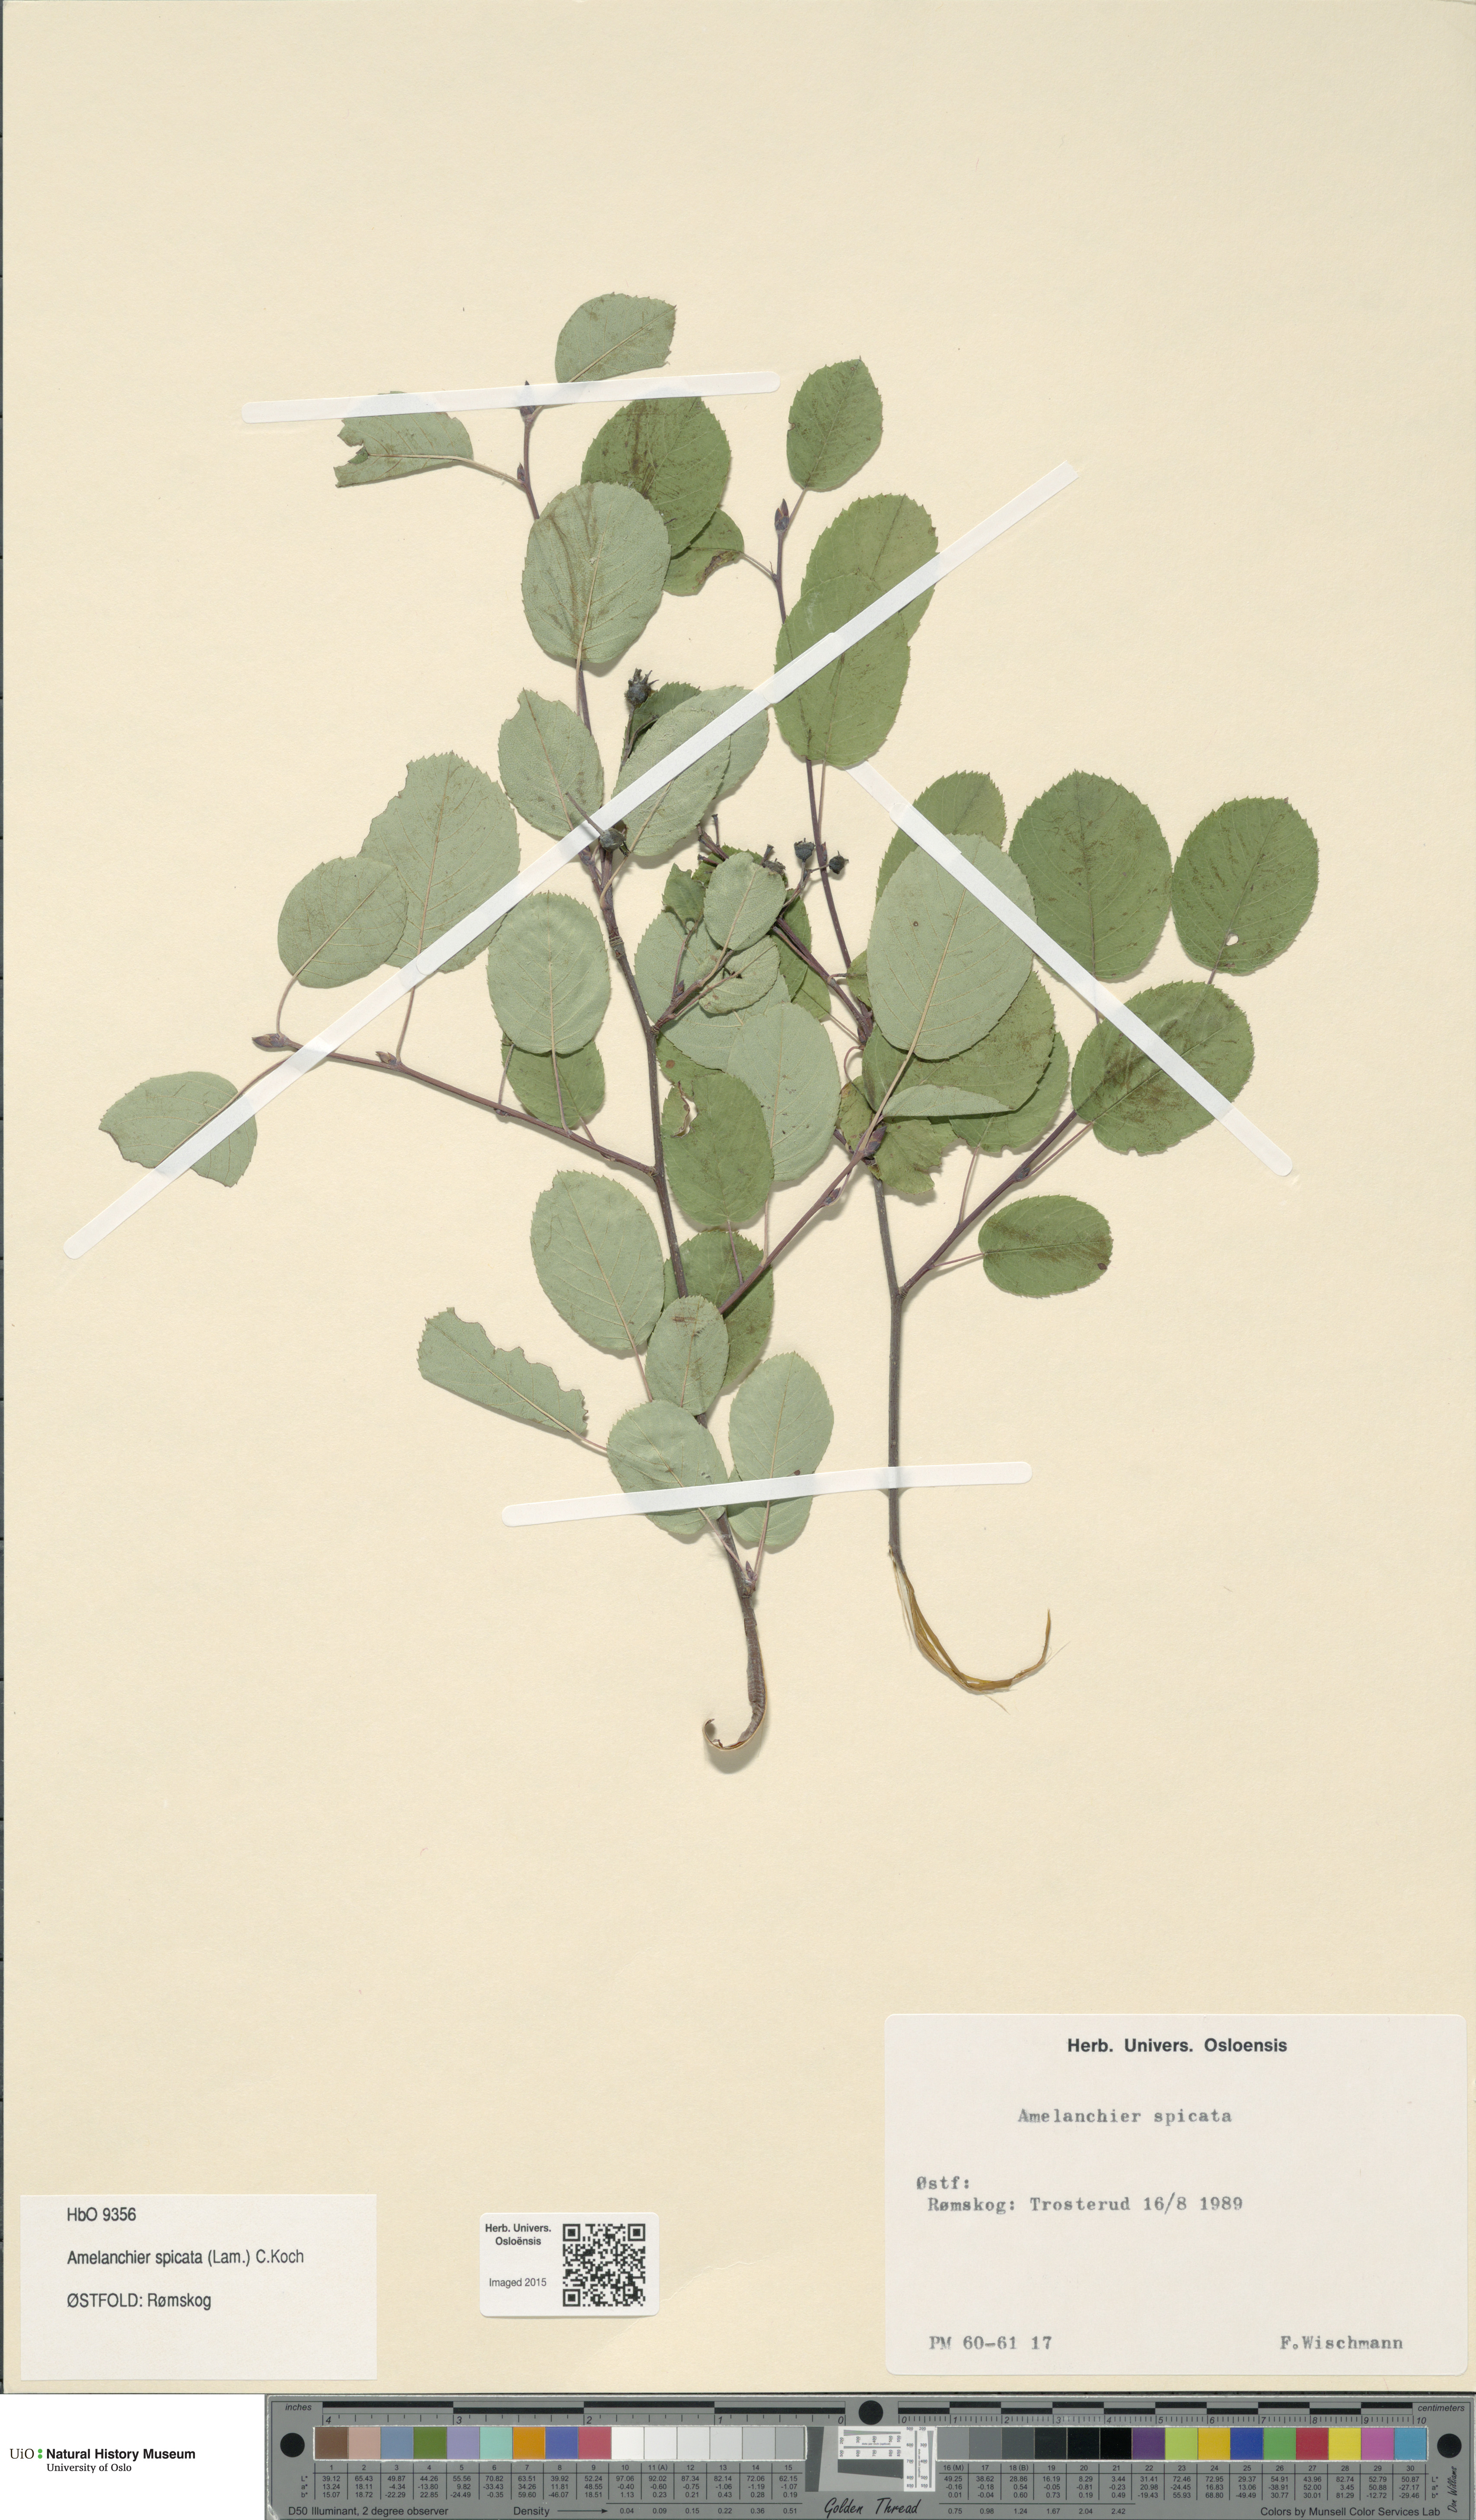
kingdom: Plantae
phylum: Tracheophyta
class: Magnoliopsida
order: Rosales
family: Rosaceae
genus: Amelanchier
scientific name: Amelanchier humilis
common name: Low juneberry
